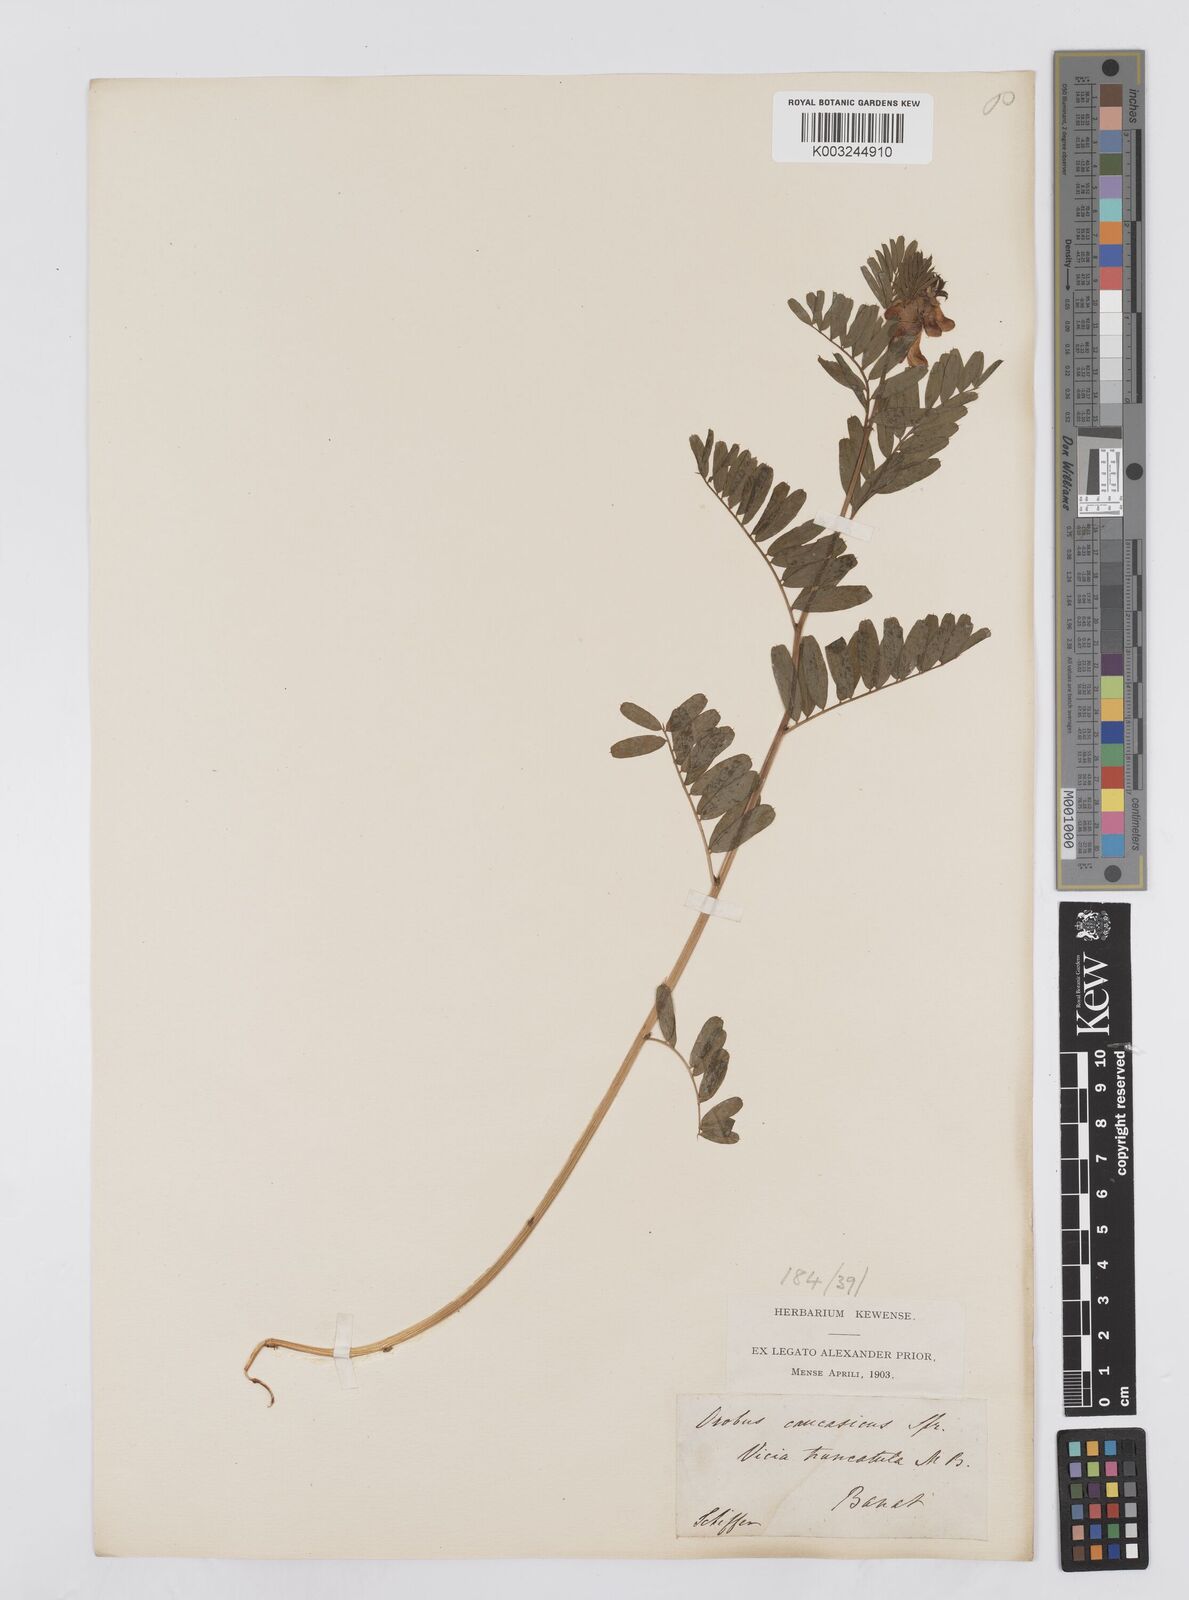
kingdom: Plantae
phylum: Tracheophyta
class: Magnoliopsida
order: Fabales
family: Fabaceae
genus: Vicia
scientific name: Vicia abbreviata
